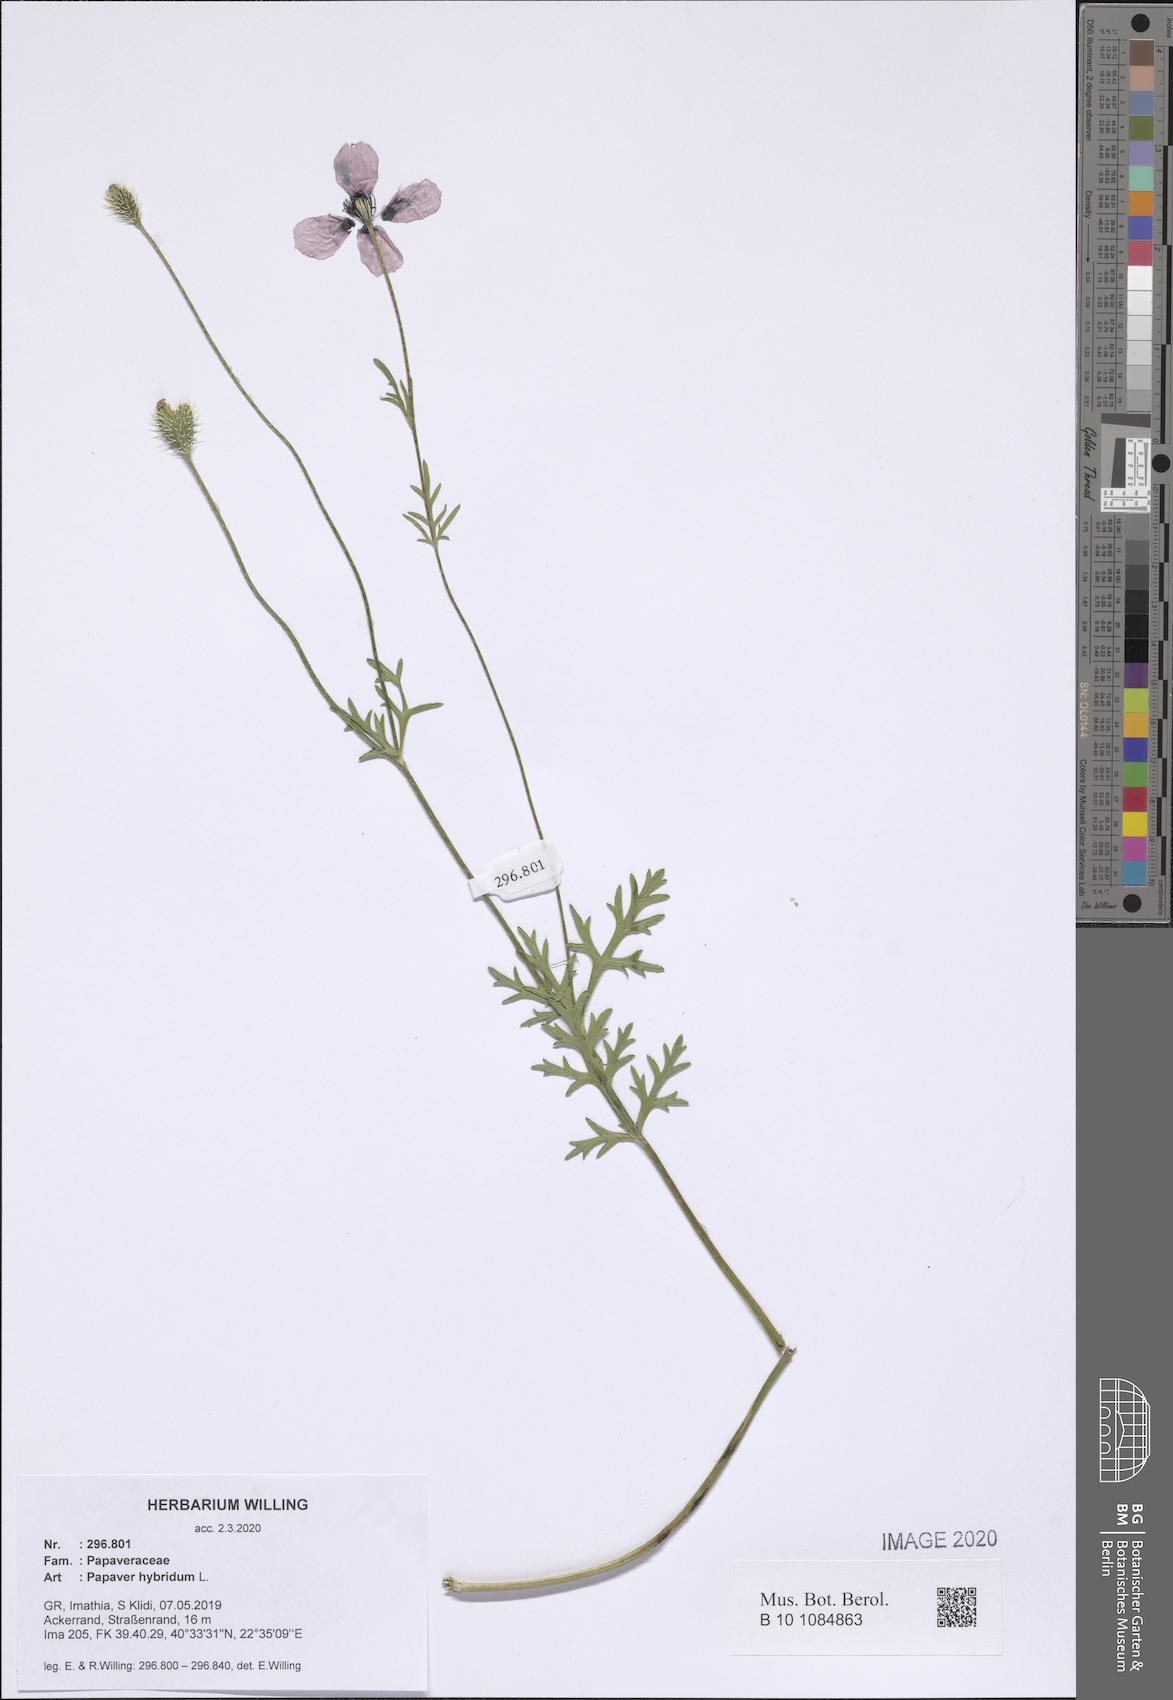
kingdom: Plantae
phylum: Tracheophyta
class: Magnoliopsida
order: Ranunculales
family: Papaveraceae
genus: Roemeria
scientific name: Roemeria hispida
